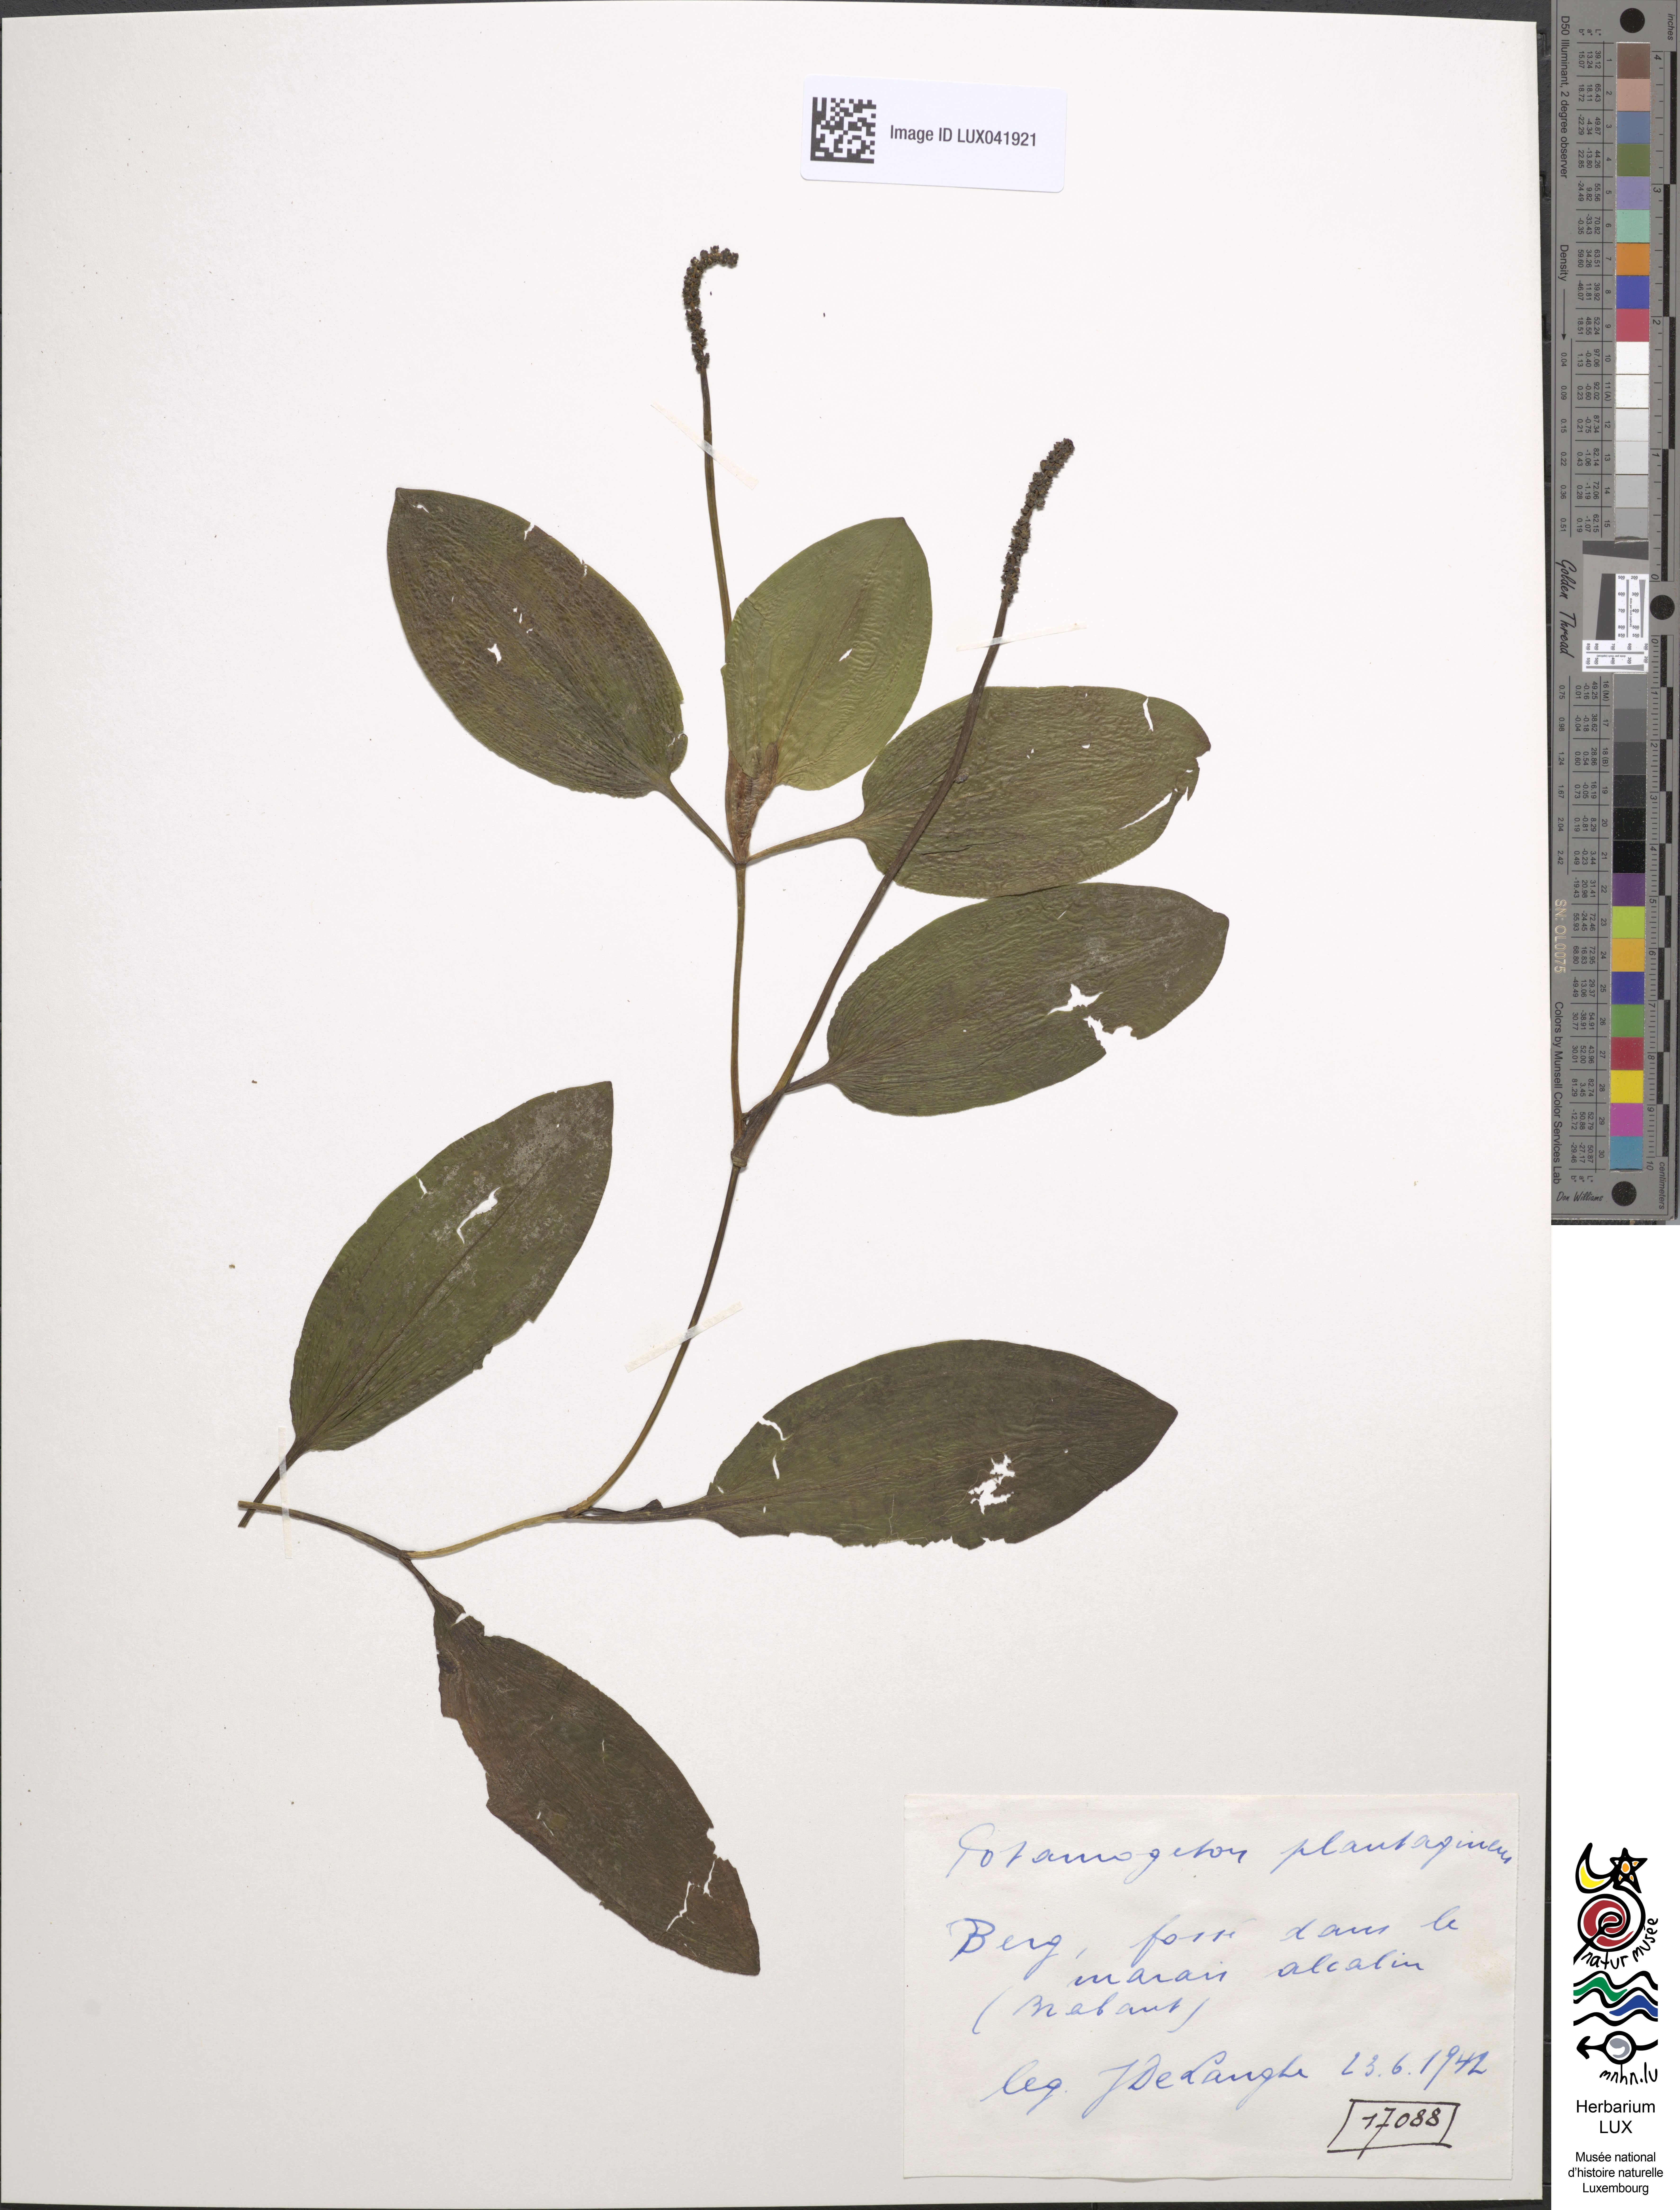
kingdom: Plantae
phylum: Tracheophyta
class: Liliopsida
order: Alismatales
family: Potamogetonaceae
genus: Potamogeton
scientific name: Potamogeton coloratus
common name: Fen pondweed
